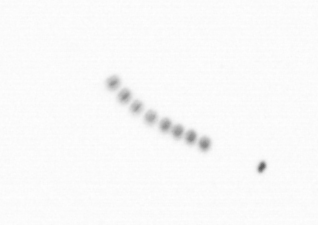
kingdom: Chromista
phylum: Ochrophyta
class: Bacillariophyceae
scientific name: Bacillariophyceae
